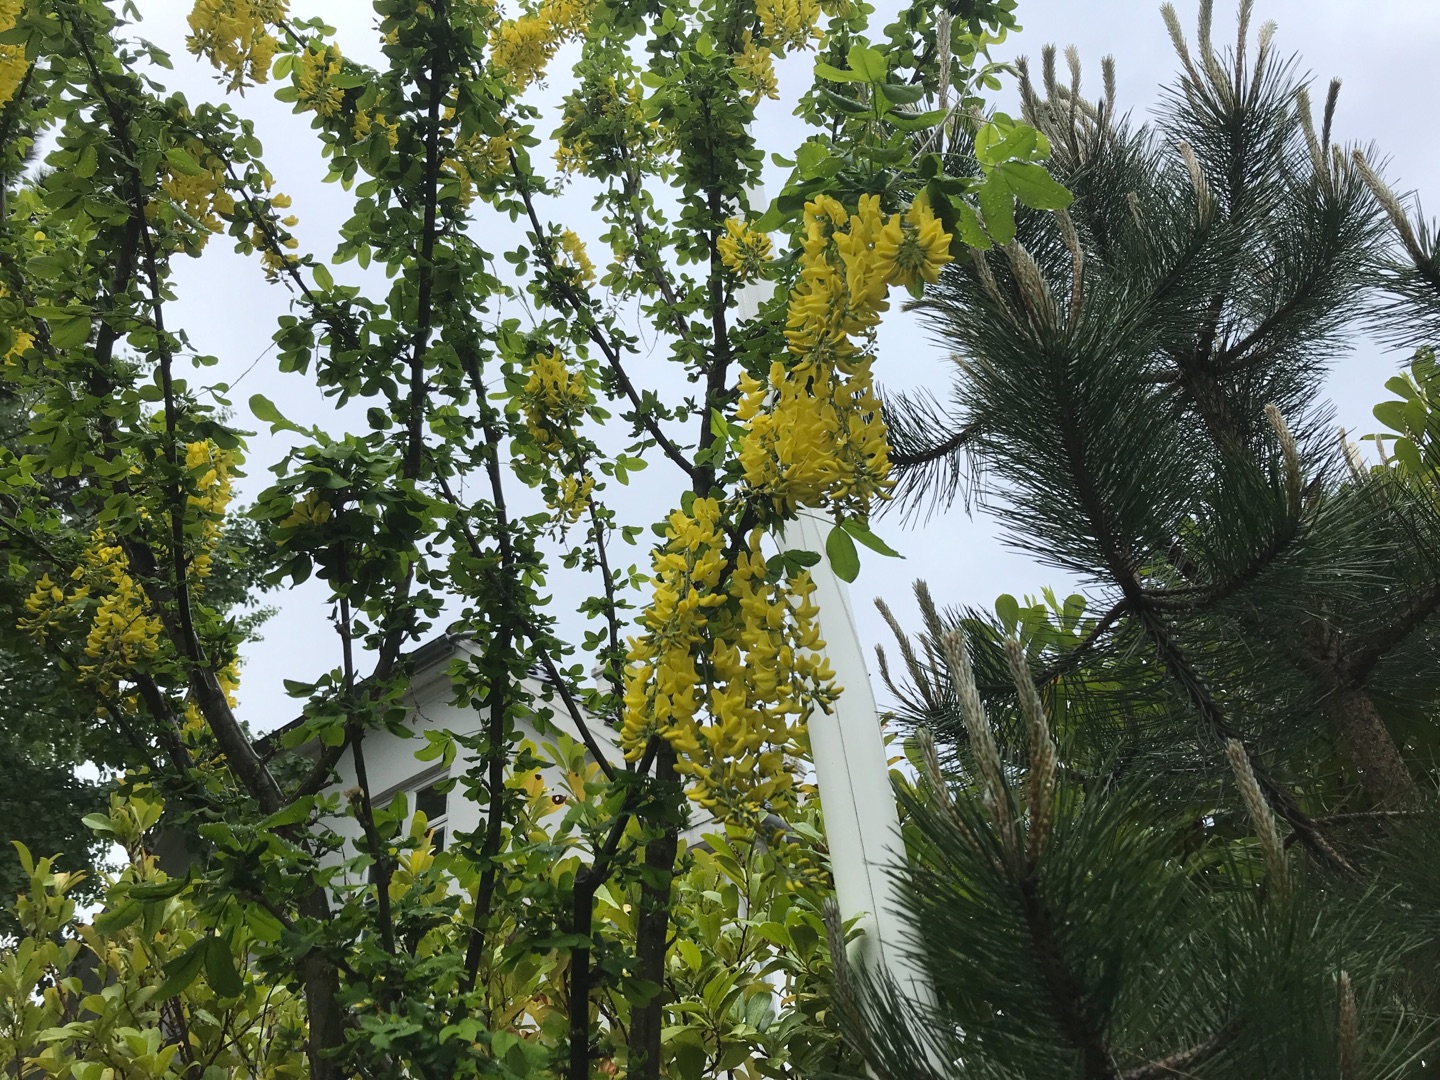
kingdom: Plantae
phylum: Tracheophyta
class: Magnoliopsida
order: Fabales
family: Fabaceae
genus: Laburnum
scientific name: Laburnum anagyroides
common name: Guldregn
